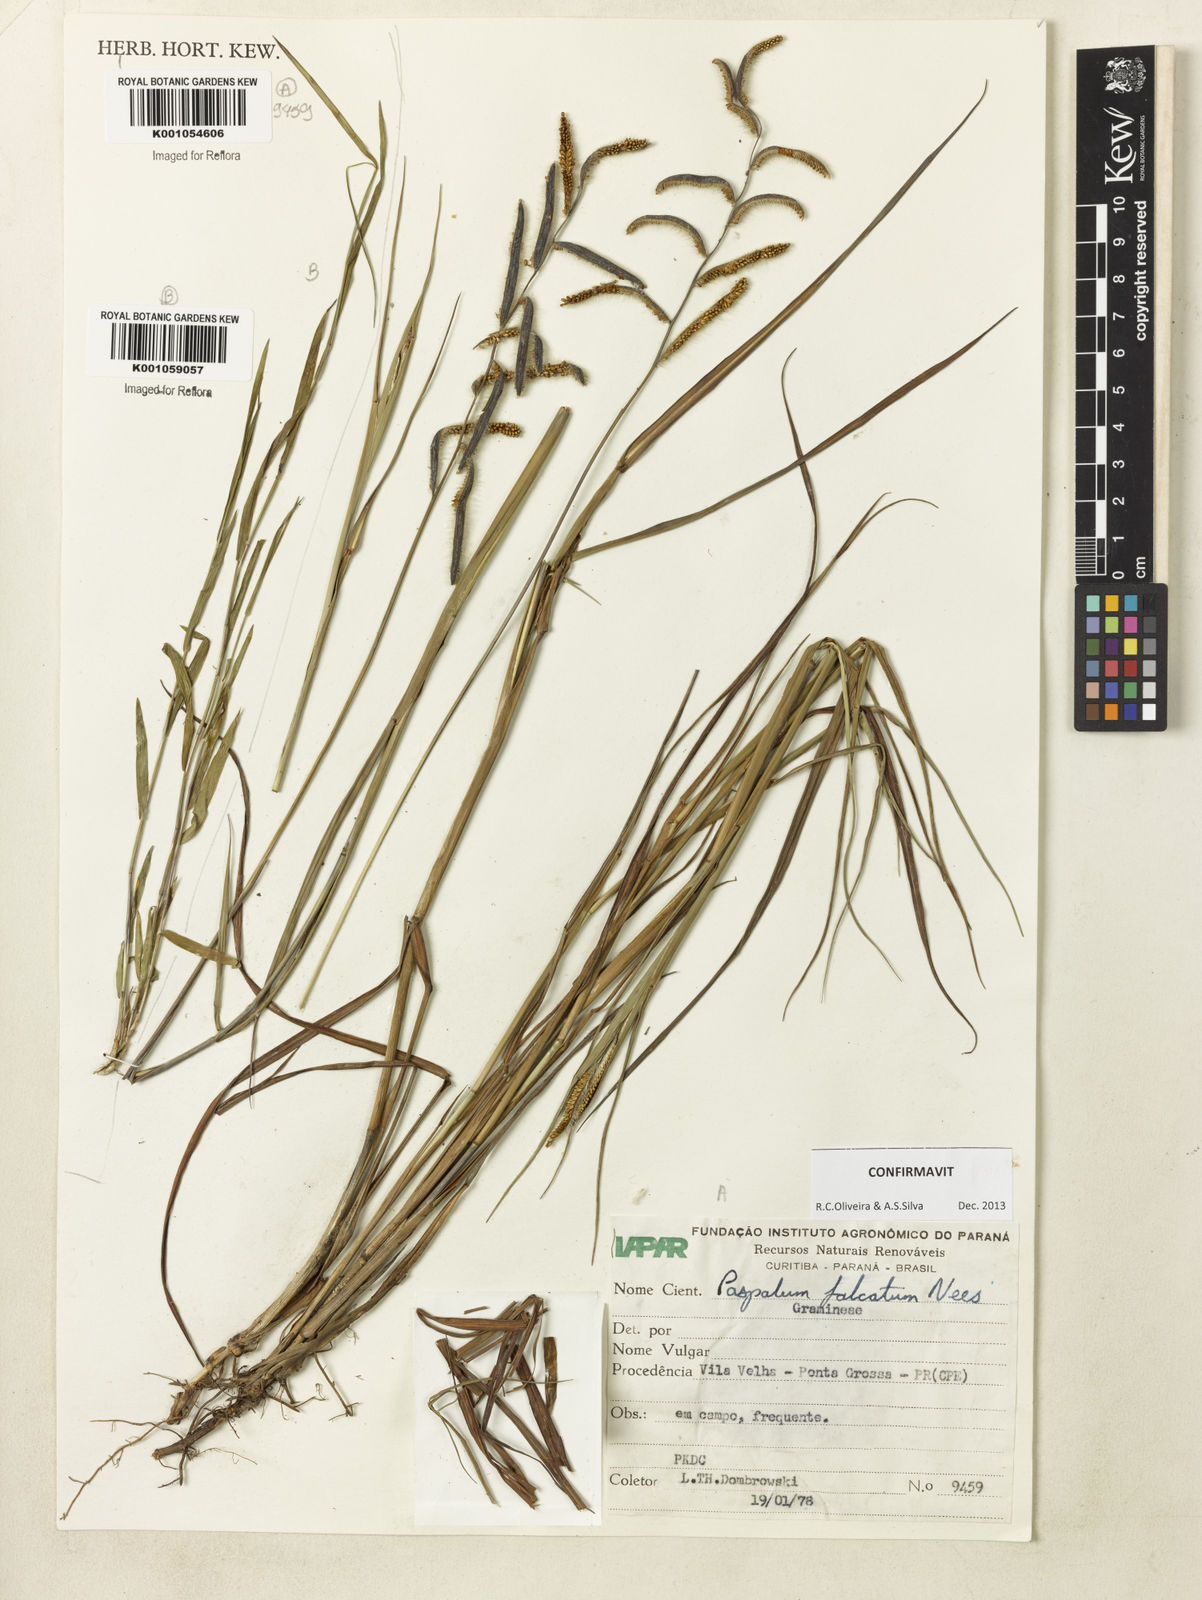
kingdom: Plantae
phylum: Tracheophyta
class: Liliopsida
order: Poales
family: Poaceae
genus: Paspalum
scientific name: Paspalum falcatum
